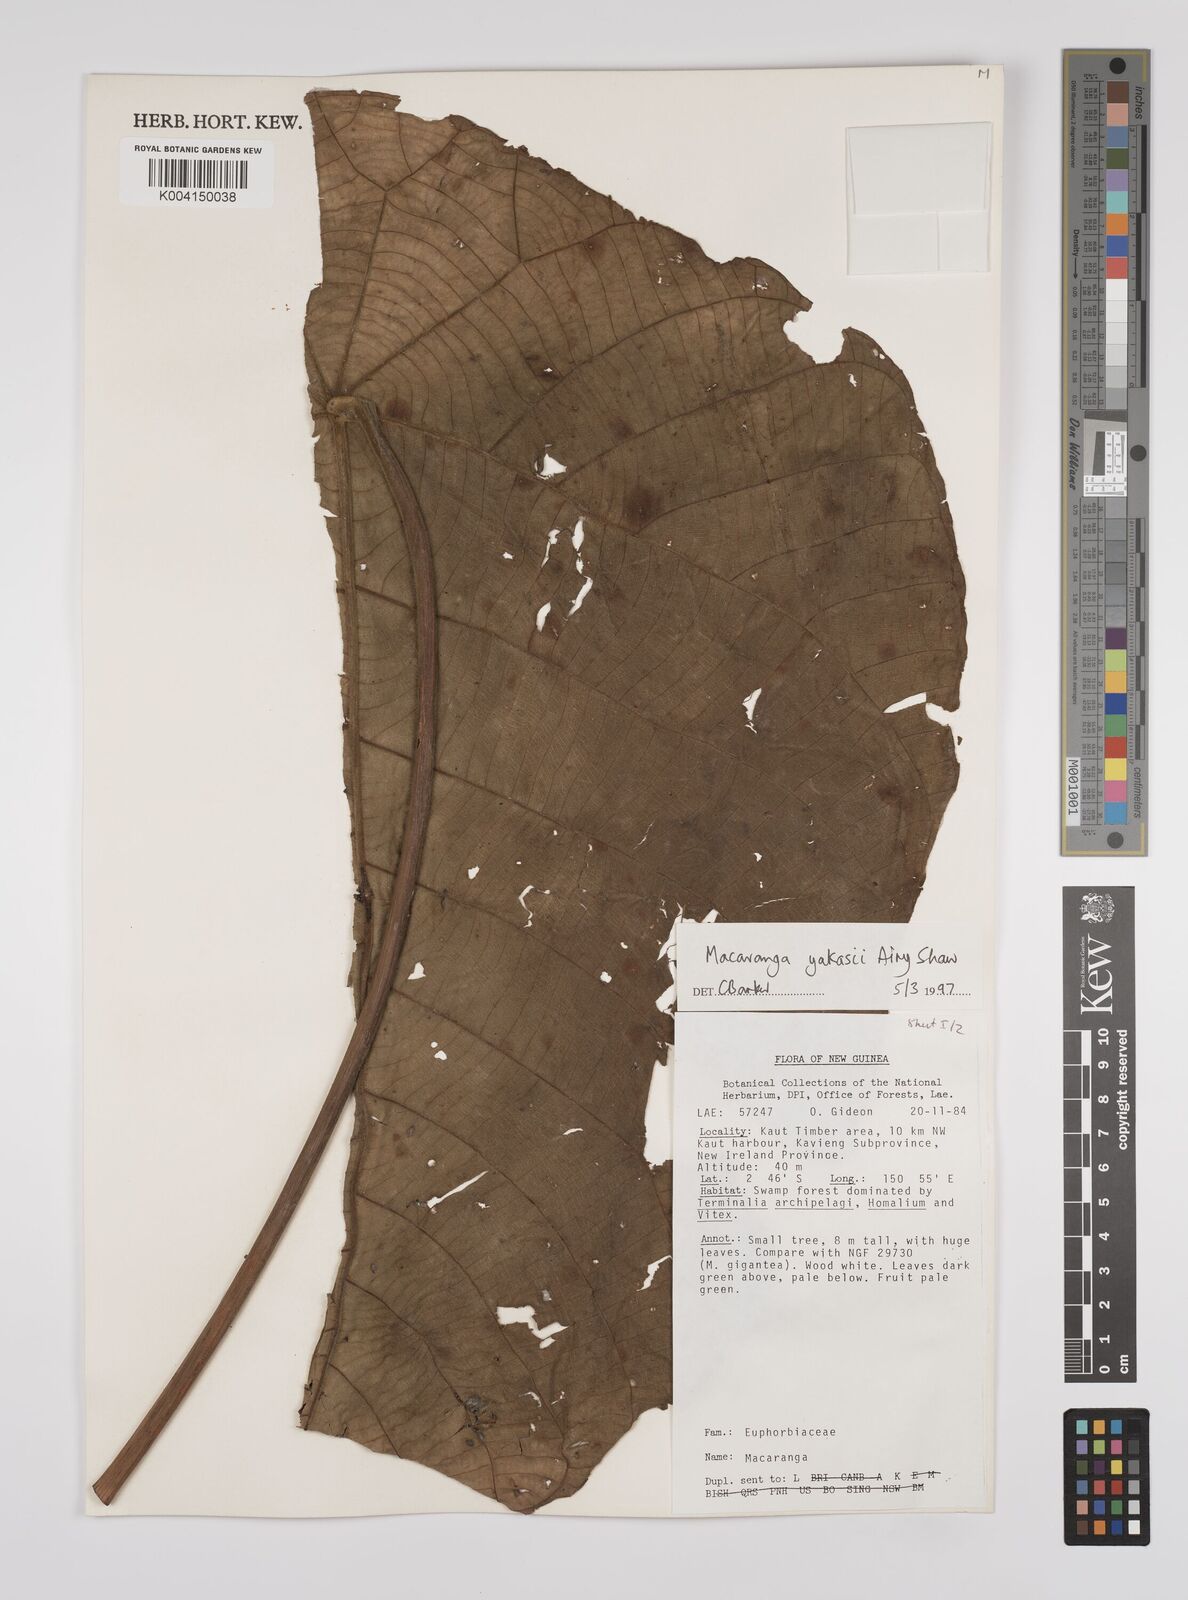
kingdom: Plantae
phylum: Tracheophyta
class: Magnoliopsida
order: Malpighiales
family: Euphorbiaceae
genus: Macaranga
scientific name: Macaranga yakasii
